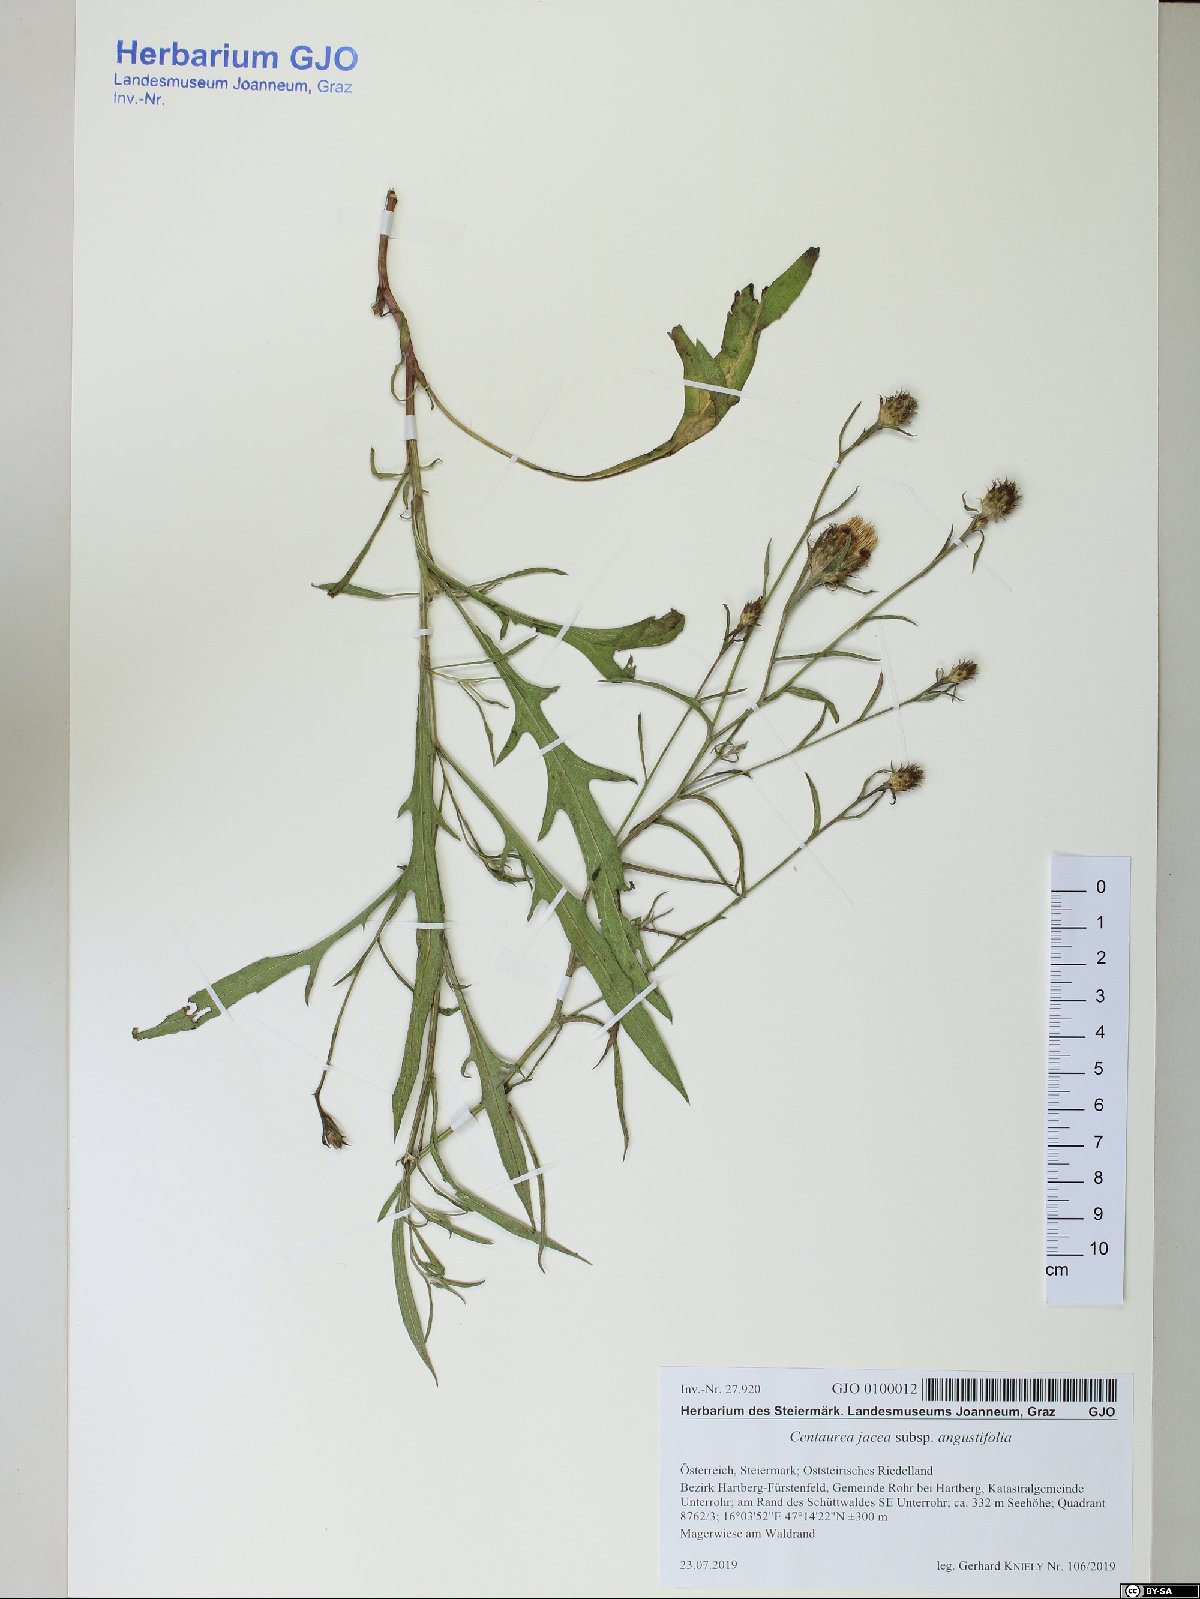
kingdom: Plantae
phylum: Tracheophyta
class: Magnoliopsida
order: Asterales
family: Asteraceae
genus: Centaurea
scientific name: Centaurea pannonica
